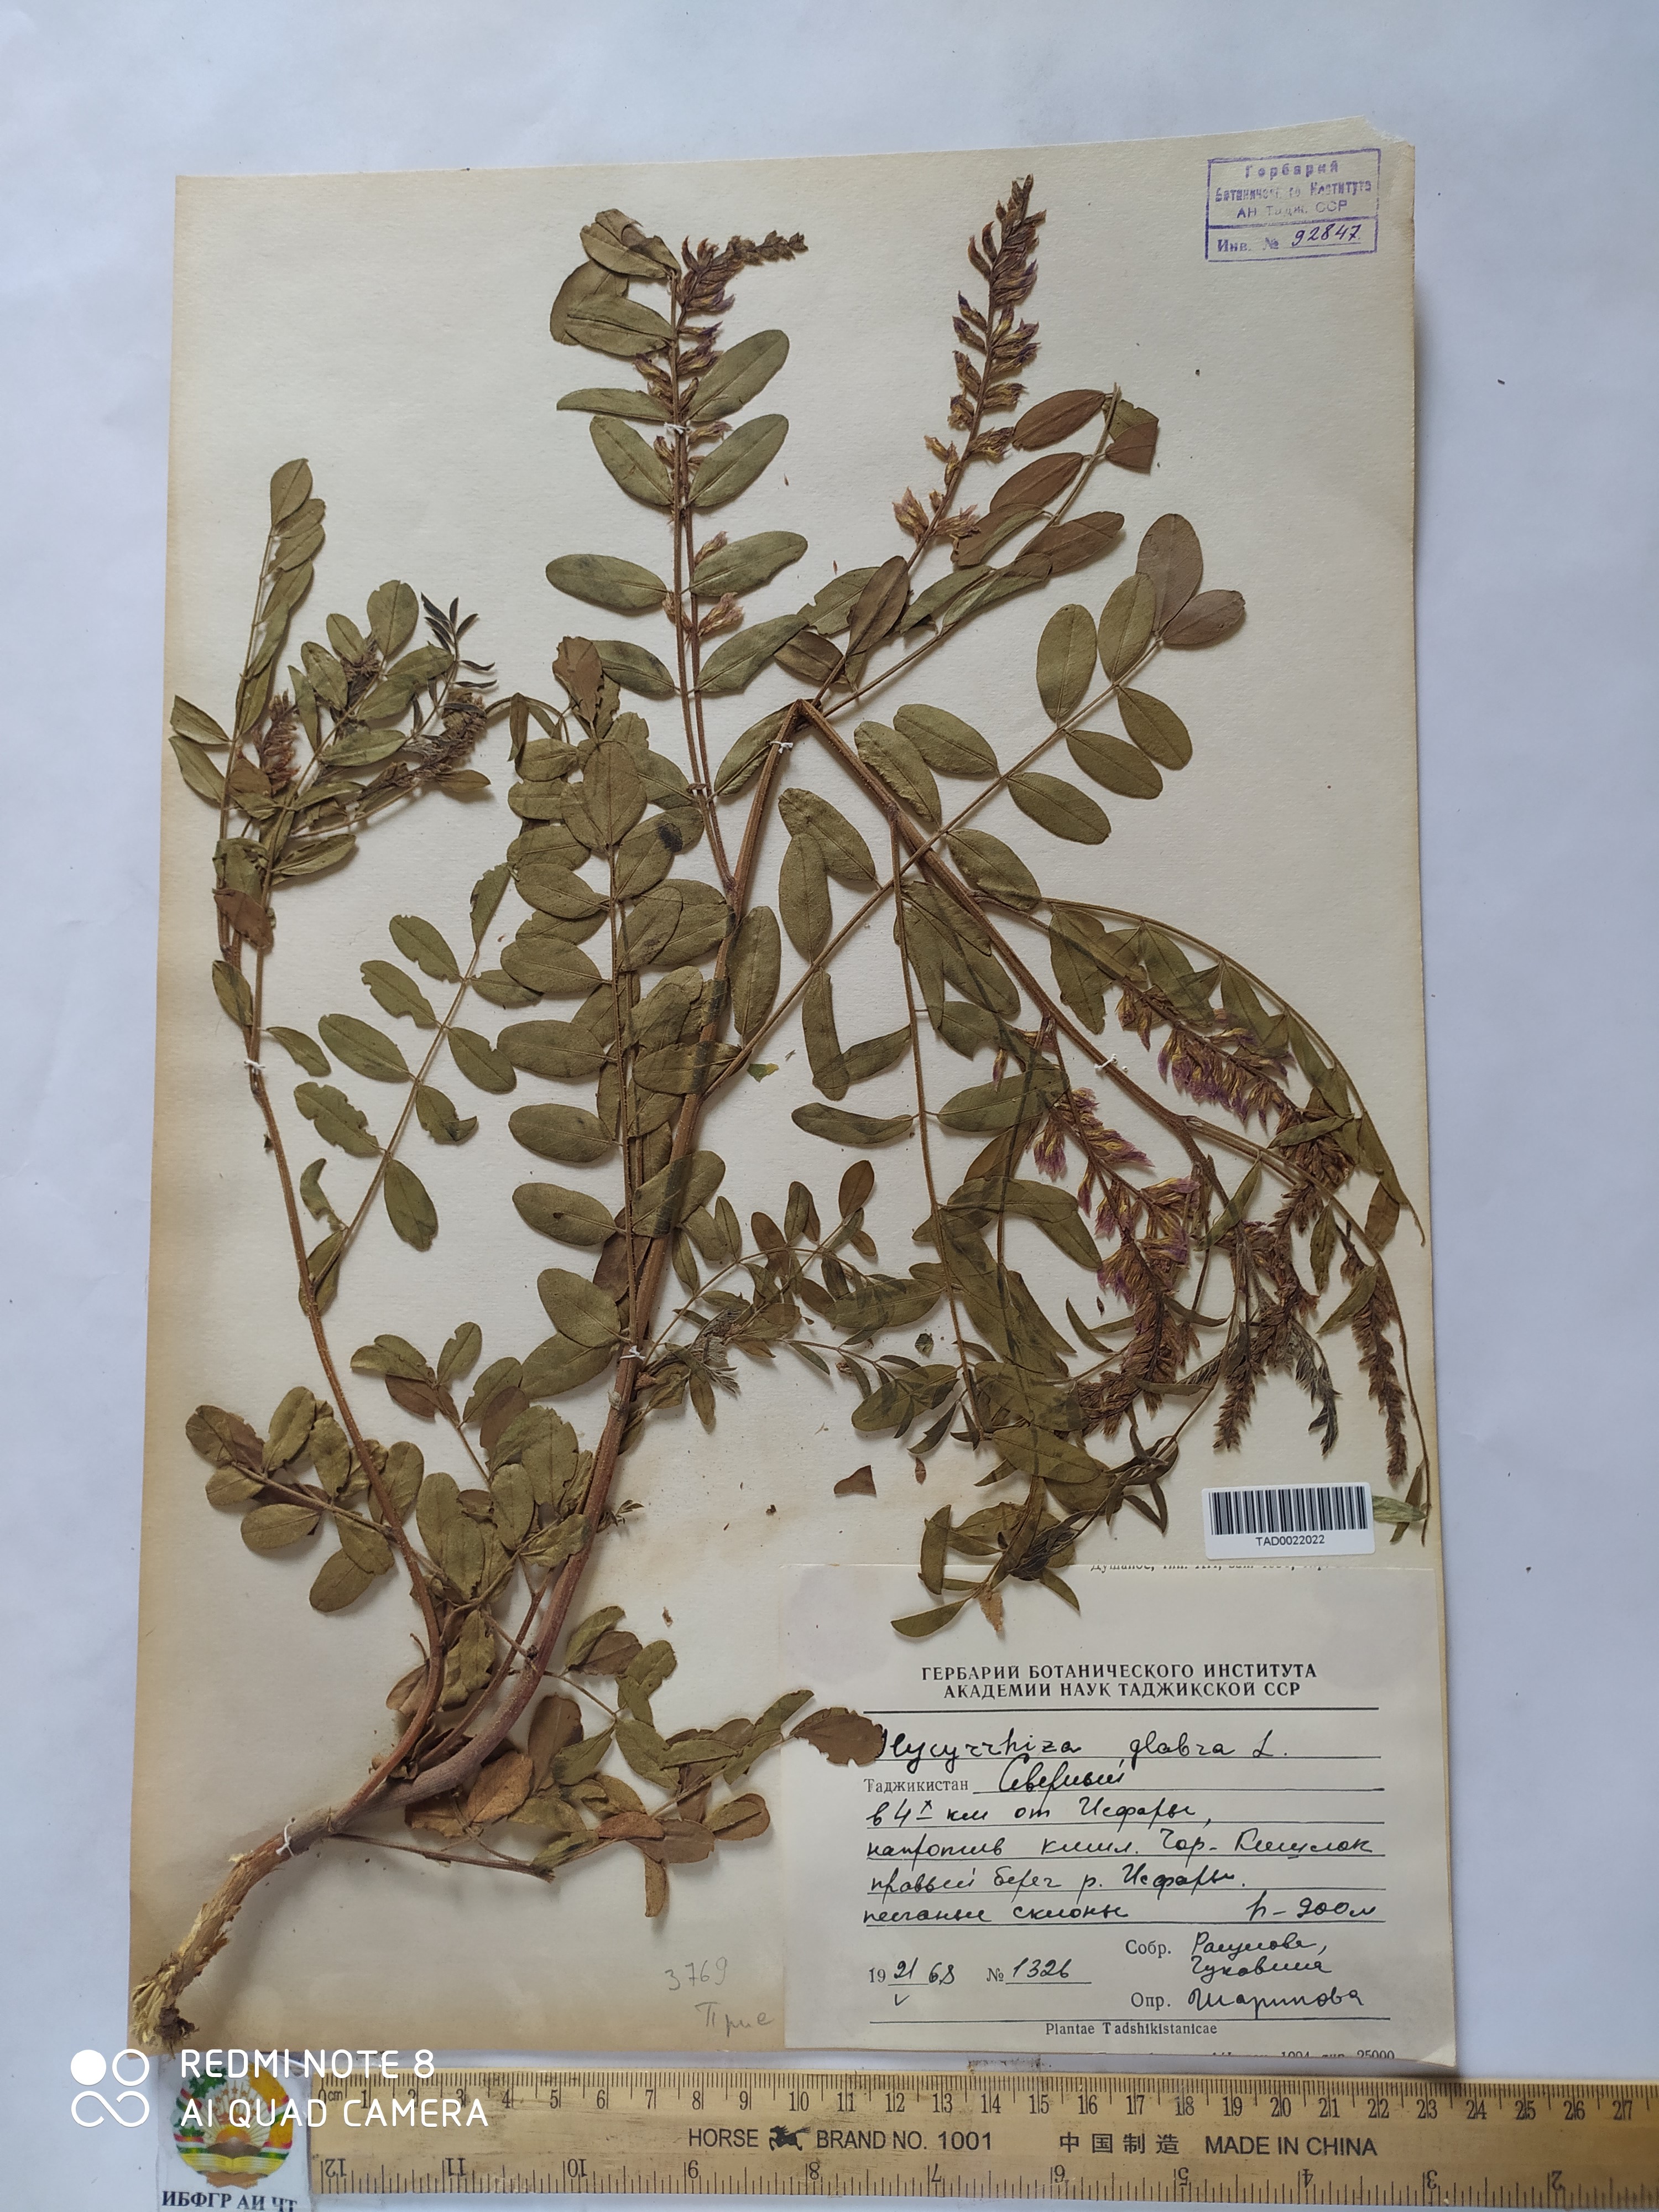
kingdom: Plantae
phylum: Tracheophyta
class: Magnoliopsida
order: Fabales
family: Fabaceae
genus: Glycyrrhiza
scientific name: Glycyrrhiza glabra
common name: Liquorice
